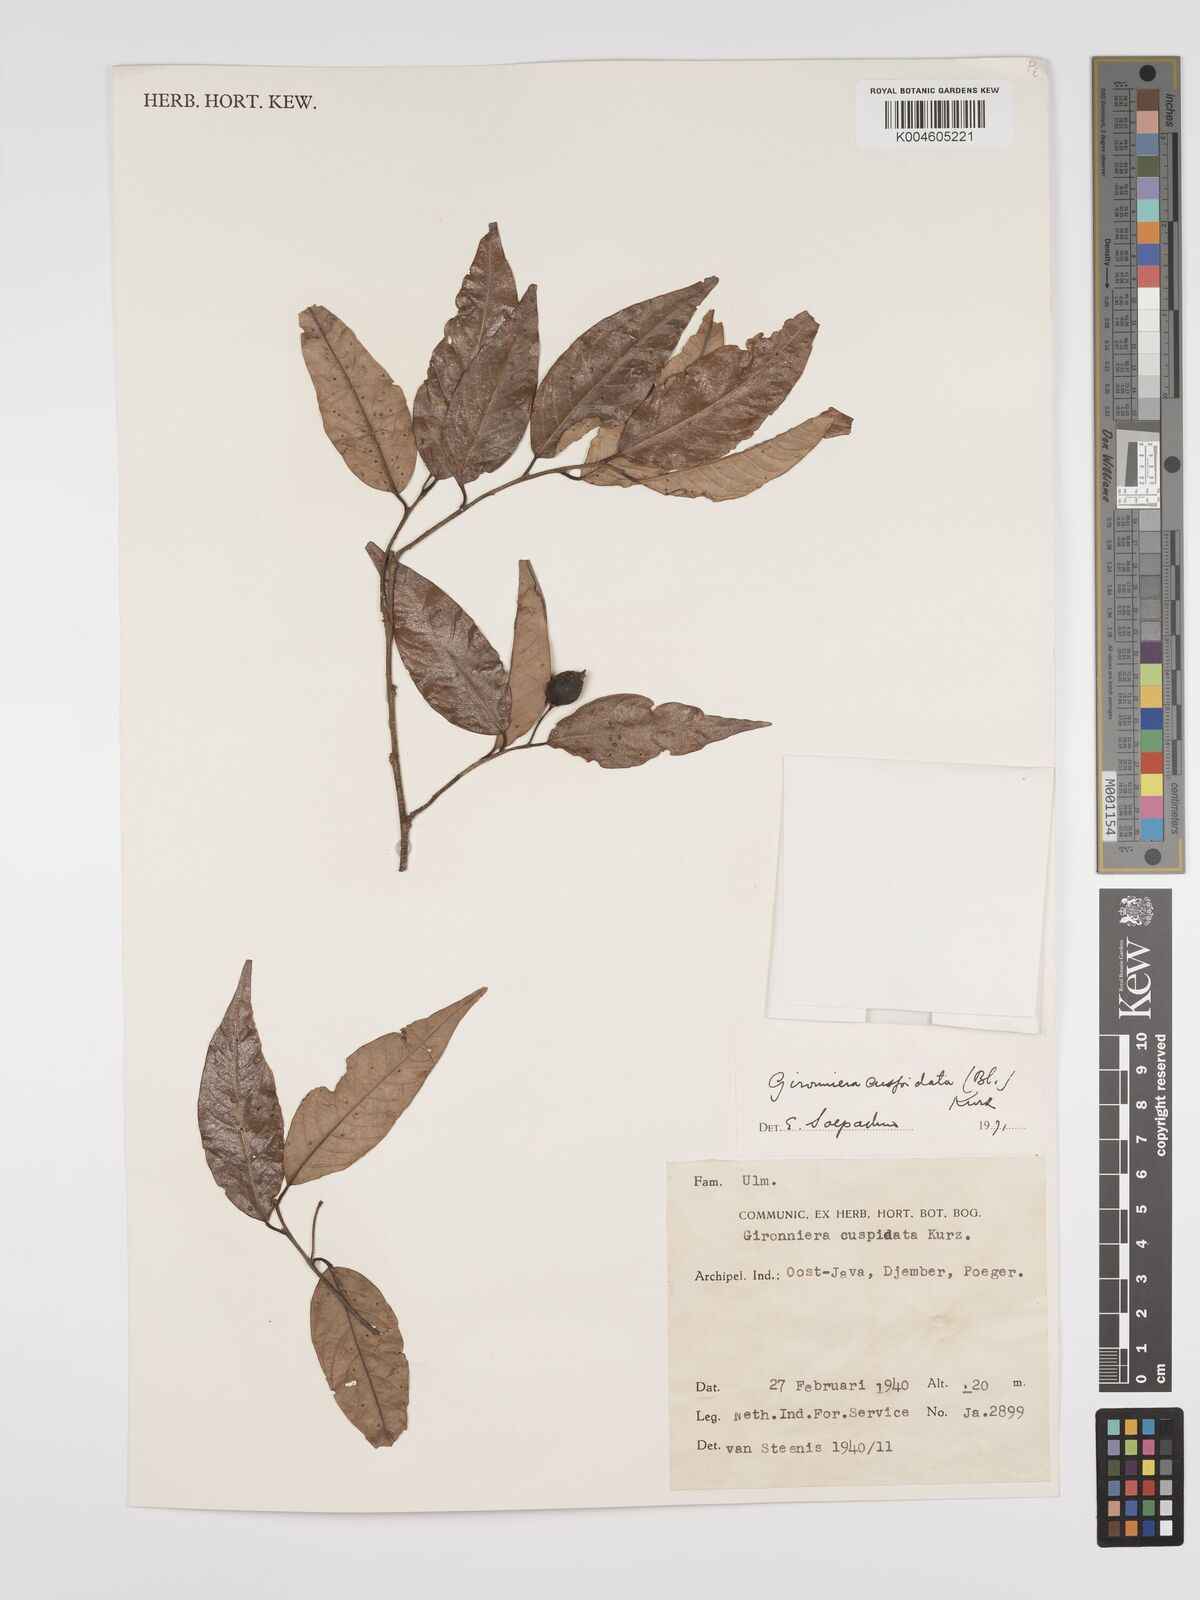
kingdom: Plantae
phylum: Tracheophyta
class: Magnoliopsida
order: Rosales
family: Cannabaceae
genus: Aphananthe
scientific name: Aphananthe cuspidata
